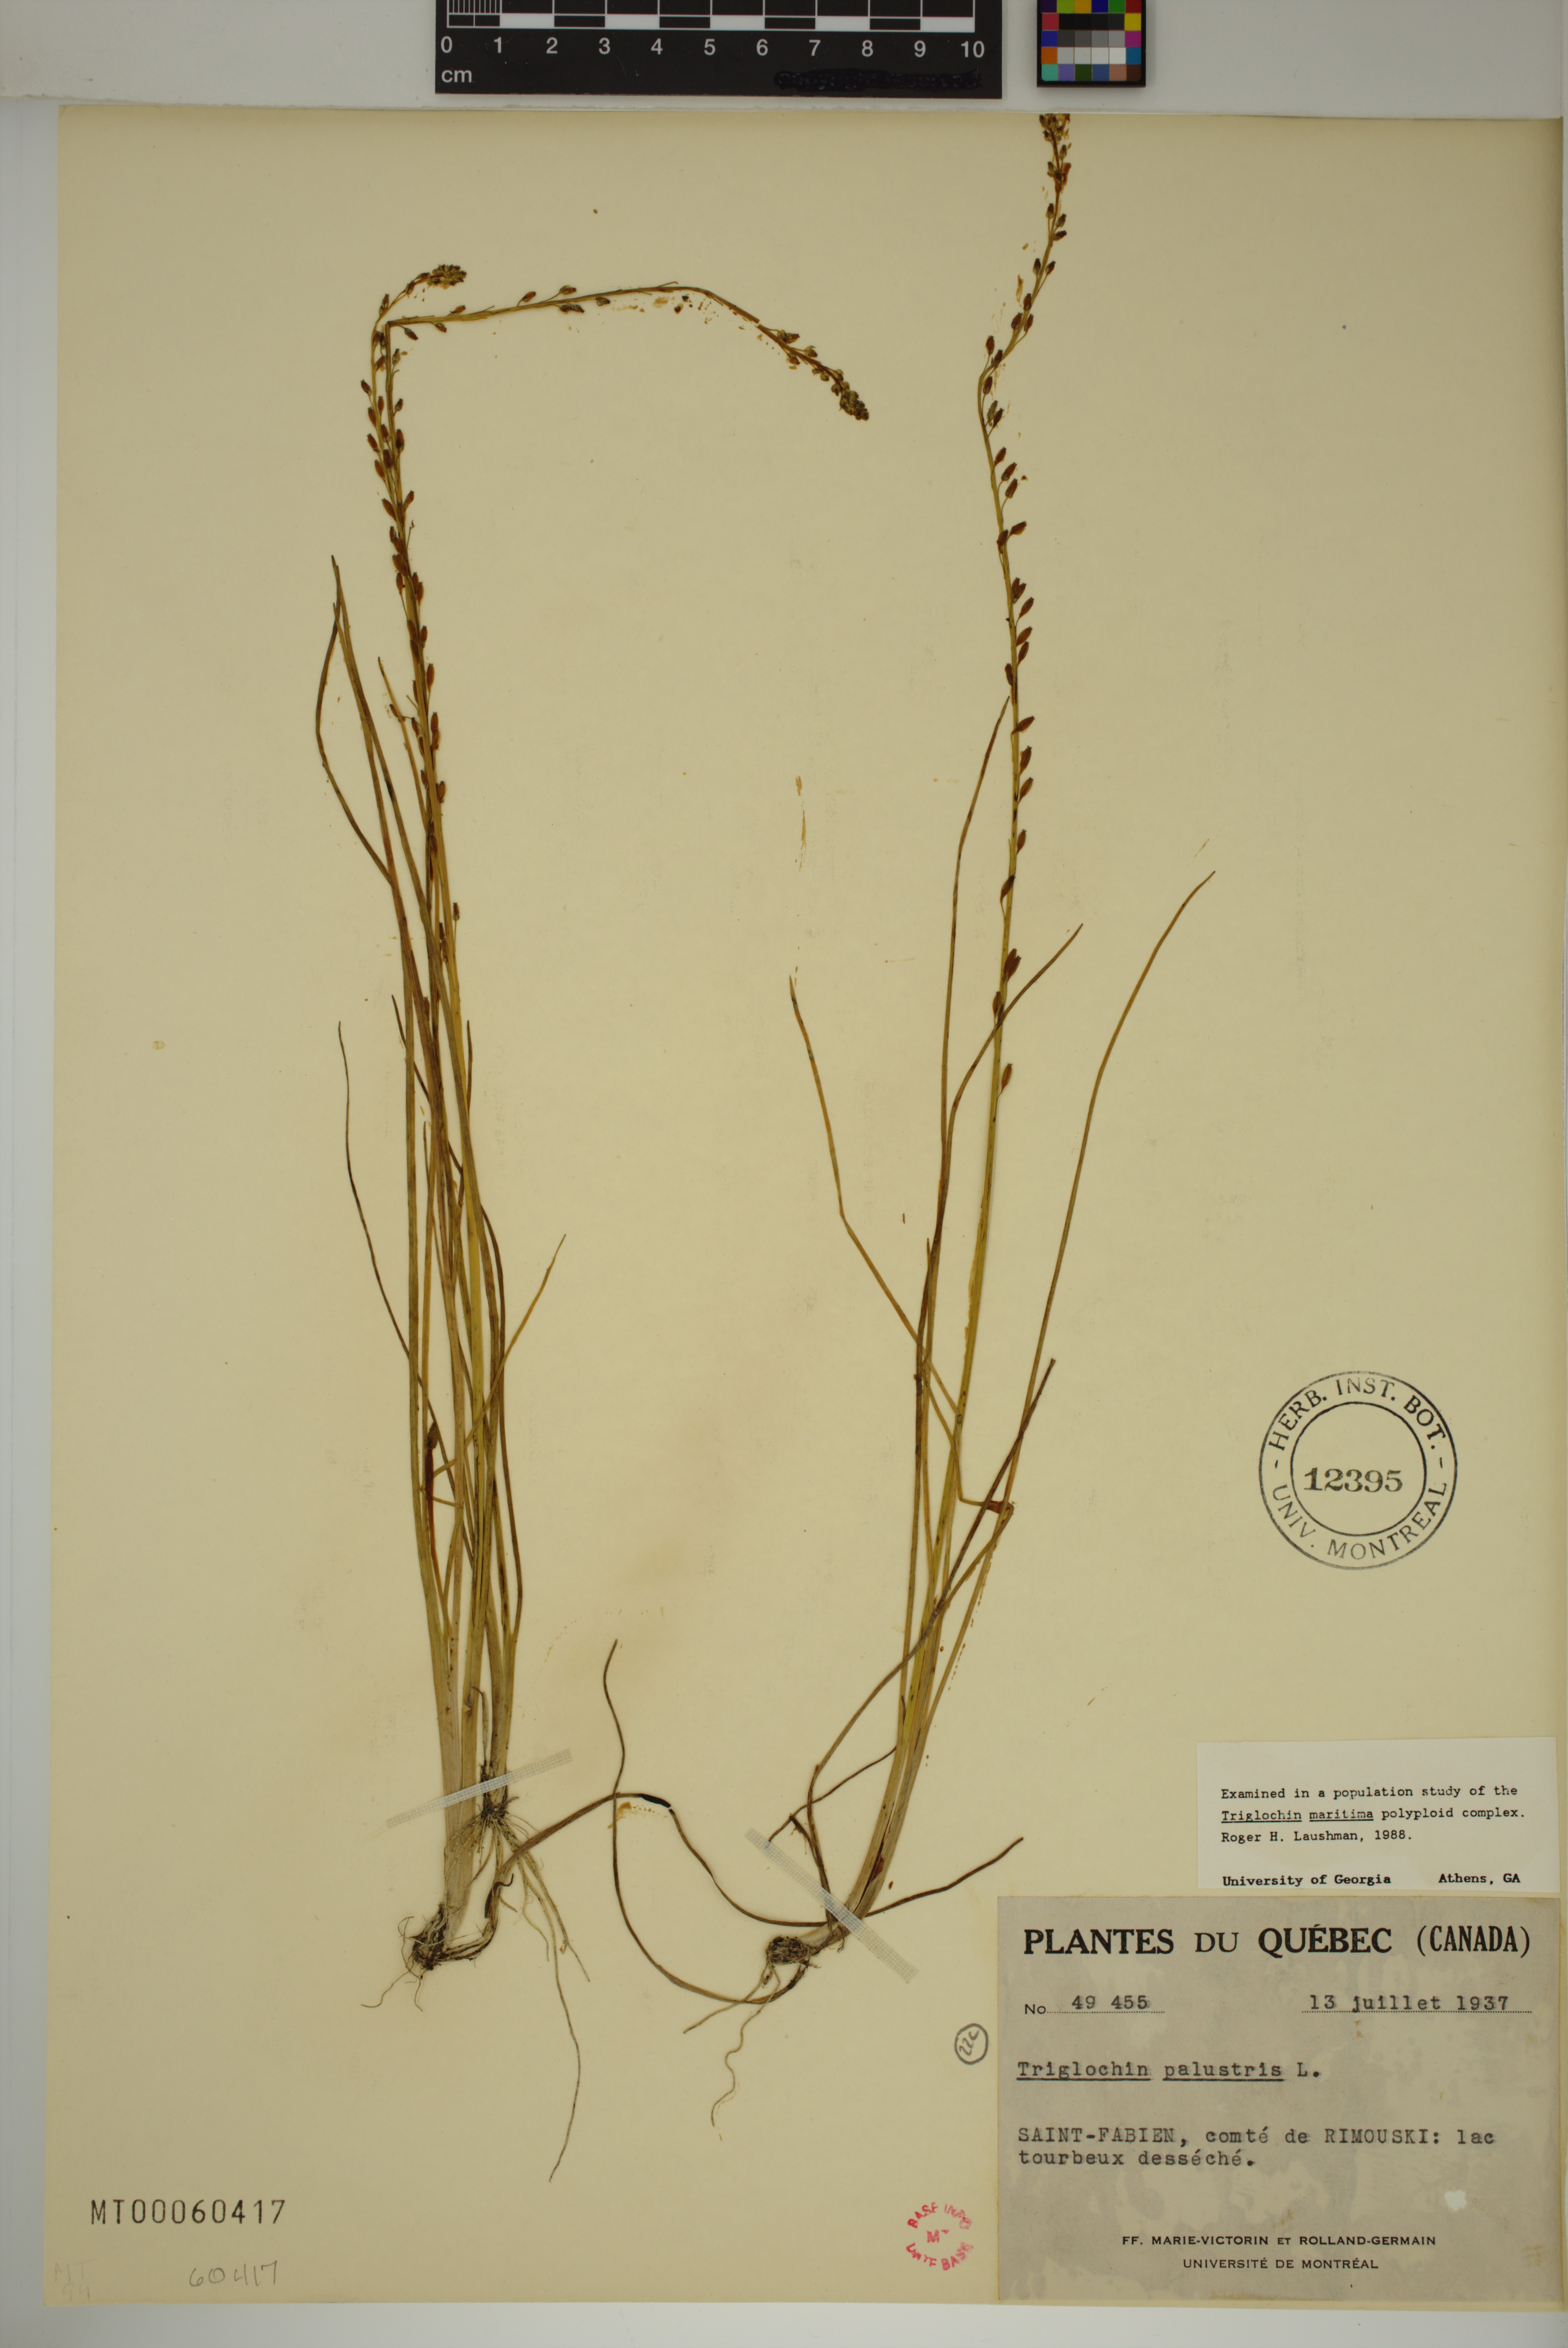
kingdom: Plantae
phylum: Tracheophyta
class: Liliopsida
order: Alismatales
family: Juncaginaceae
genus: Triglochin
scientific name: Triglochin palustris
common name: Marsh arrowgrass
